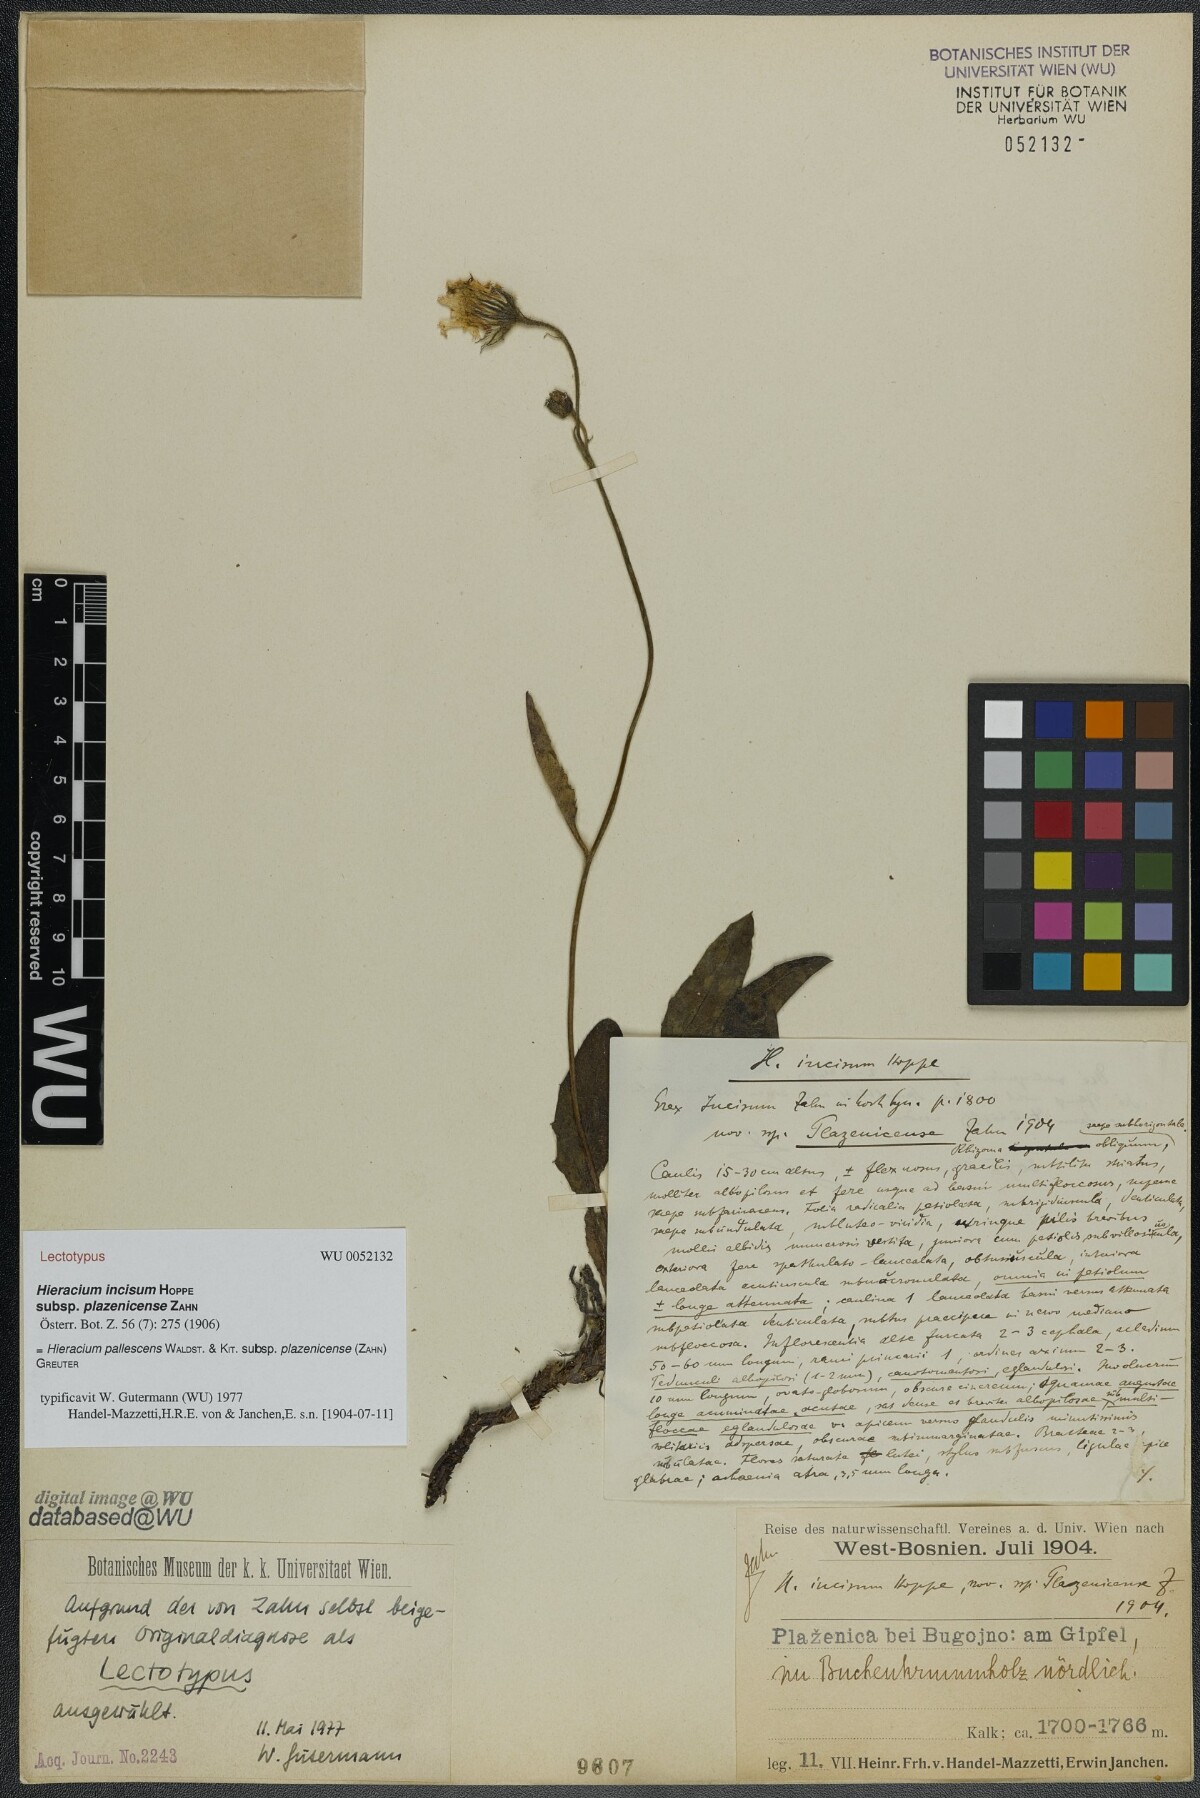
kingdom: Plantae
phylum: Tracheophyta
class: Magnoliopsida
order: Asterales
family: Asteraceae
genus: Hieracium
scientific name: Hieracium pallescens
